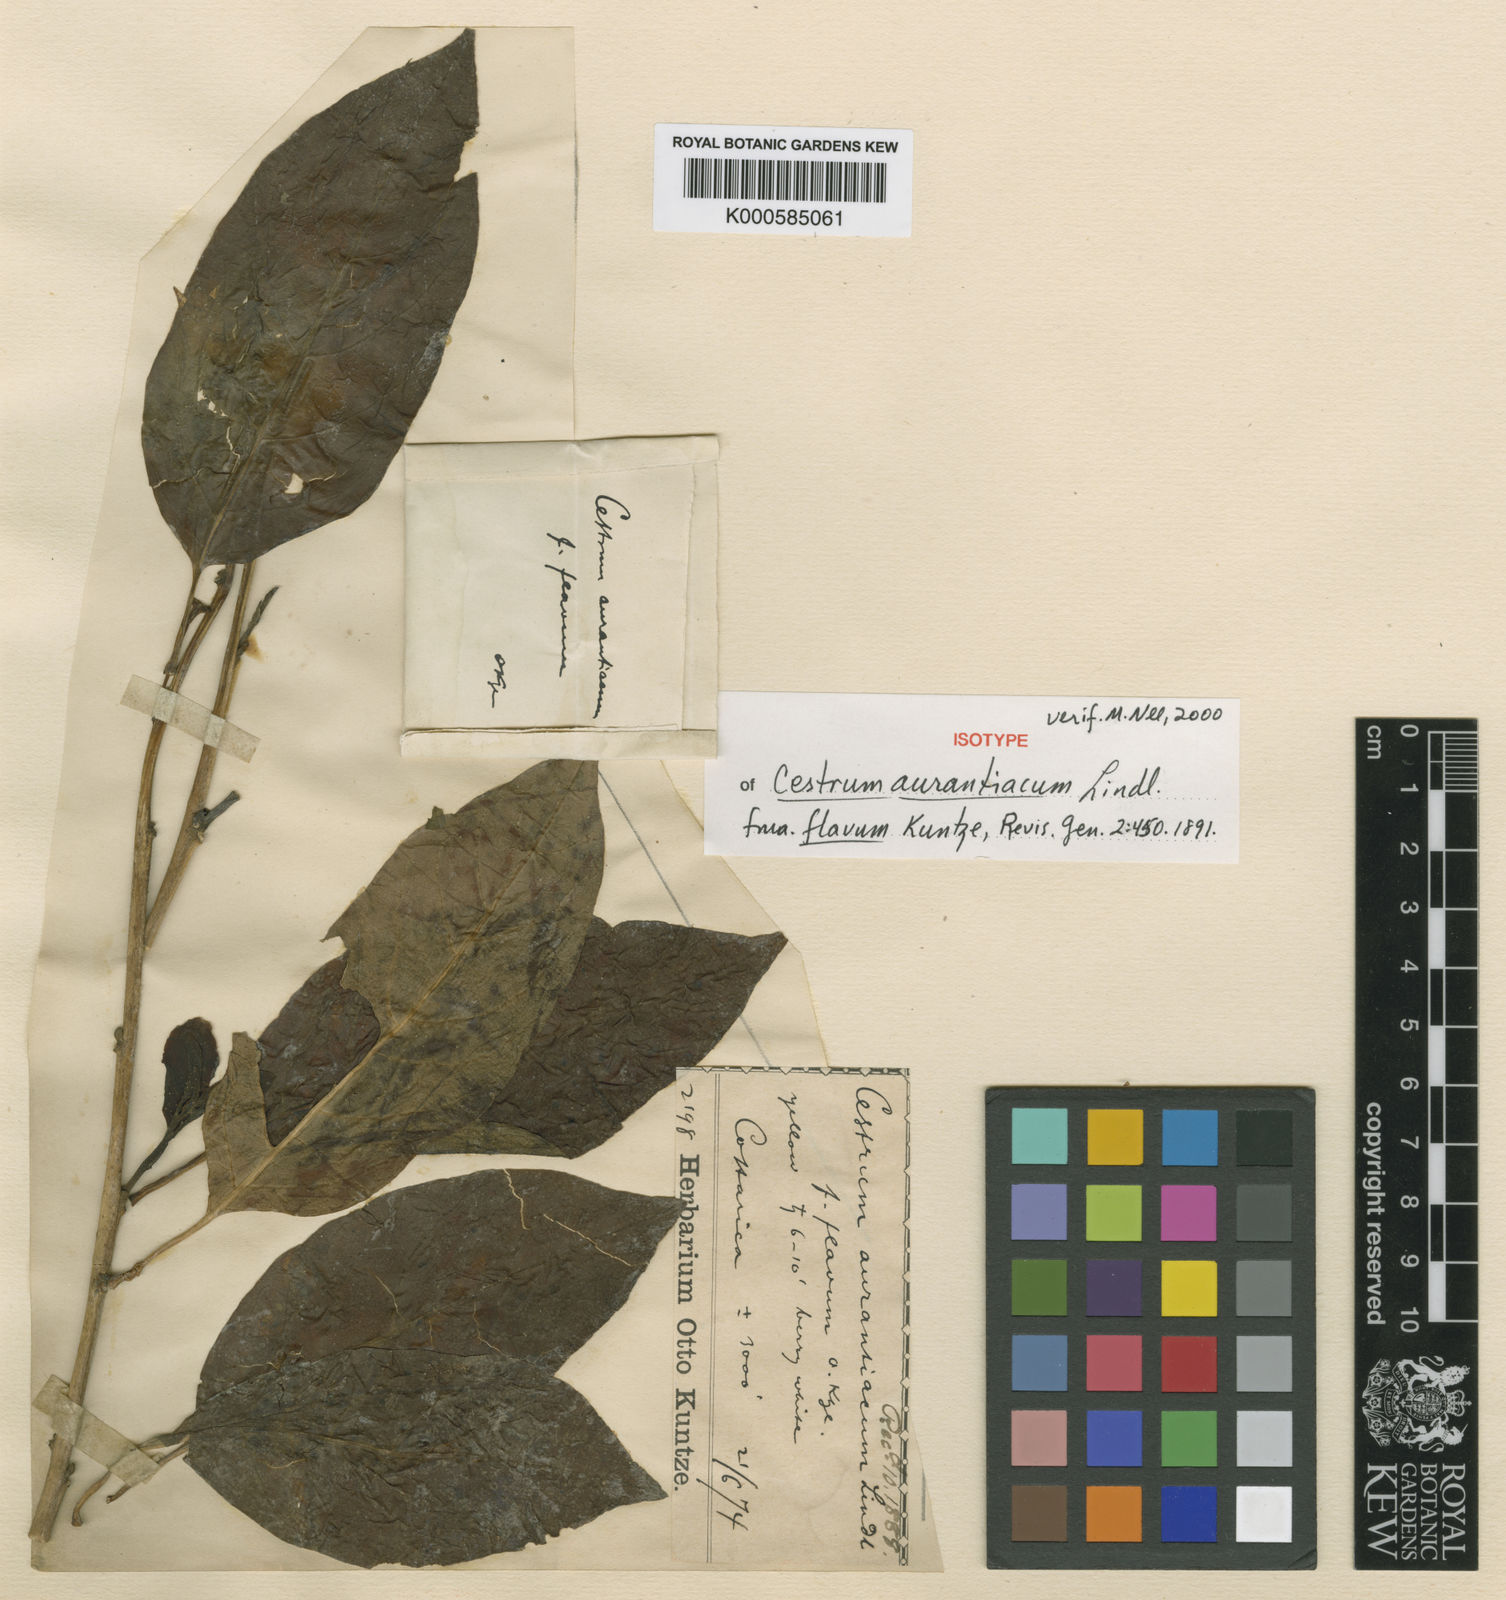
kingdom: Plantae
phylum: Tracheophyta
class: Magnoliopsida
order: Solanales
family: Solanaceae
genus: Cestrum
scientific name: Cestrum aurantiacum
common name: Orange cestrum
